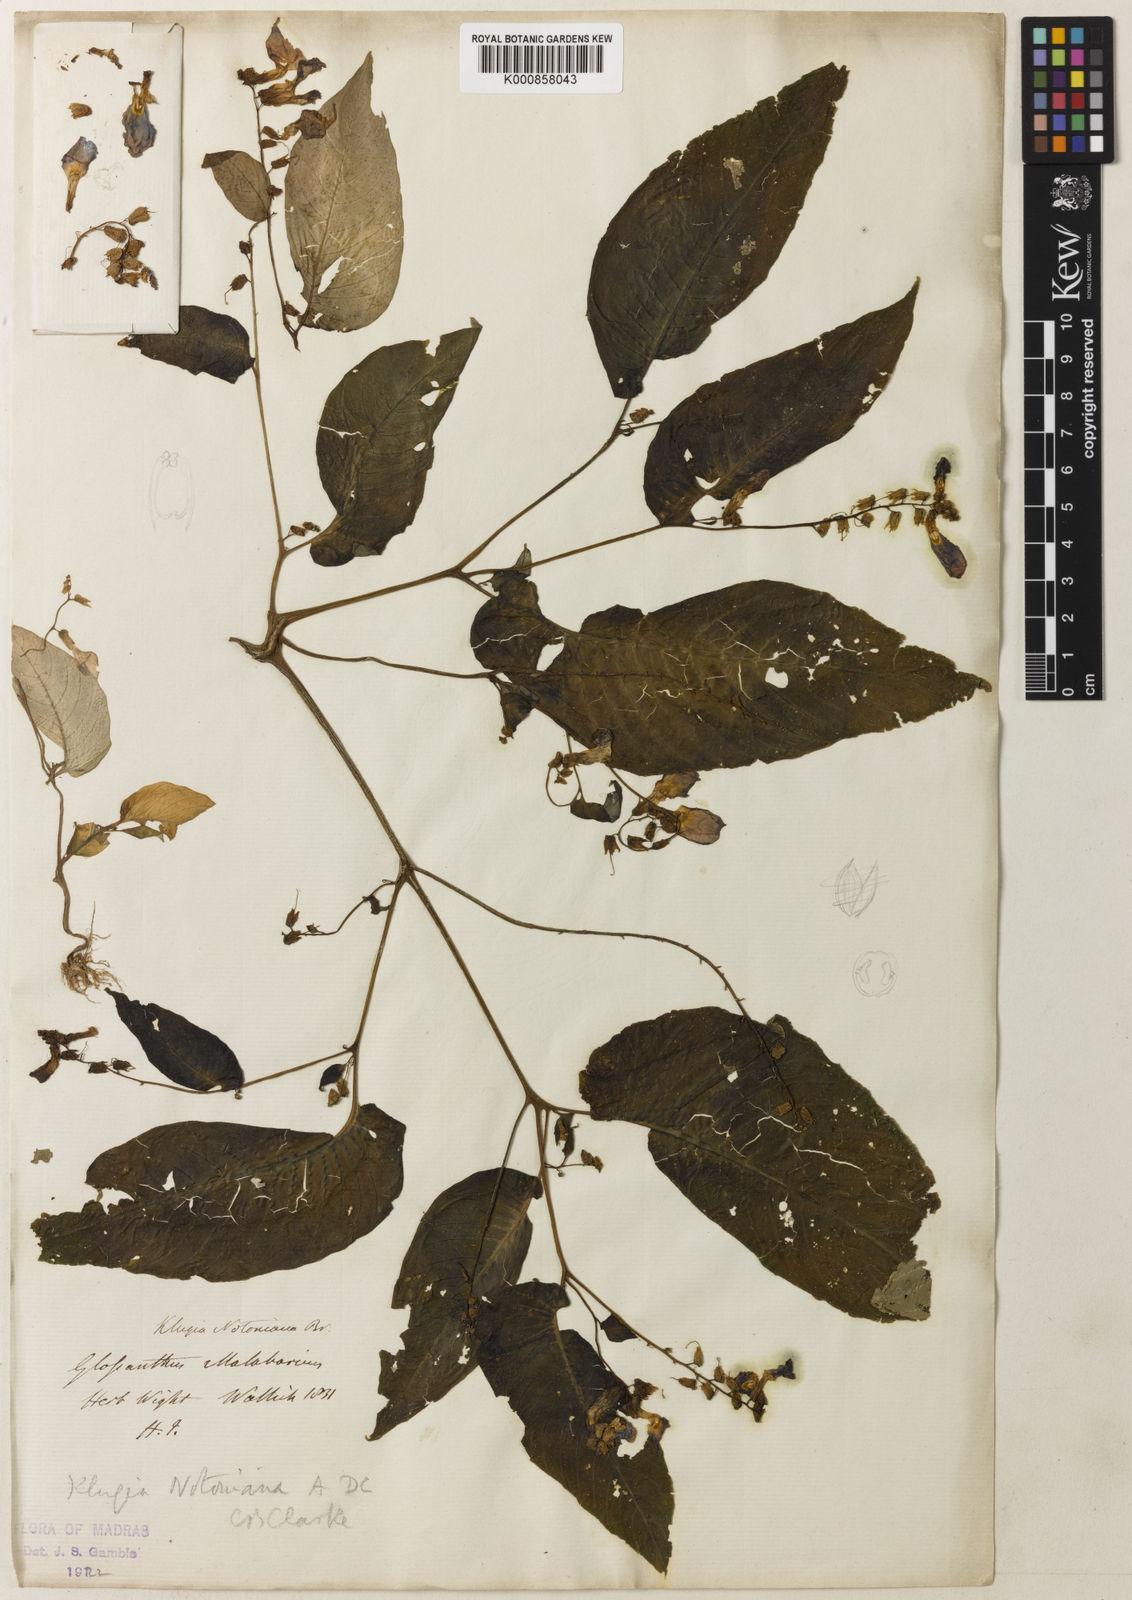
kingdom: Plantae
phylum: Tracheophyta
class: Magnoliopsida
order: Lamiales
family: Gesneriaceae
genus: Rhynchoglossum
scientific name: Rhynchoglossum notonianum
